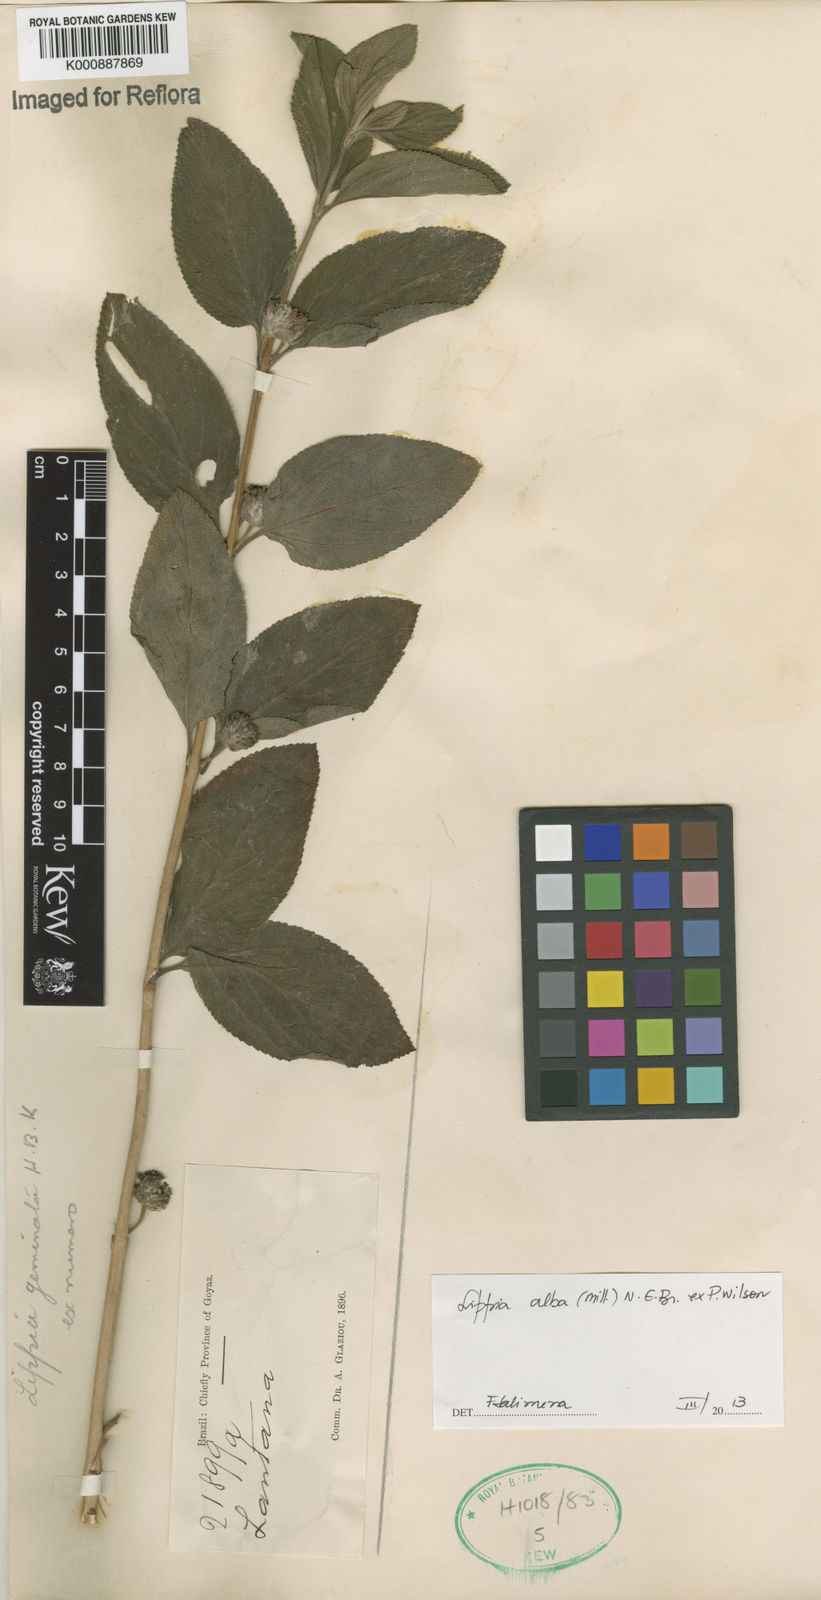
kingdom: Plantae
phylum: Tracheophyta
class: Magnoliopsida
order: Lamiales
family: Verbenaceae
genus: Lippia
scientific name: Lippia
